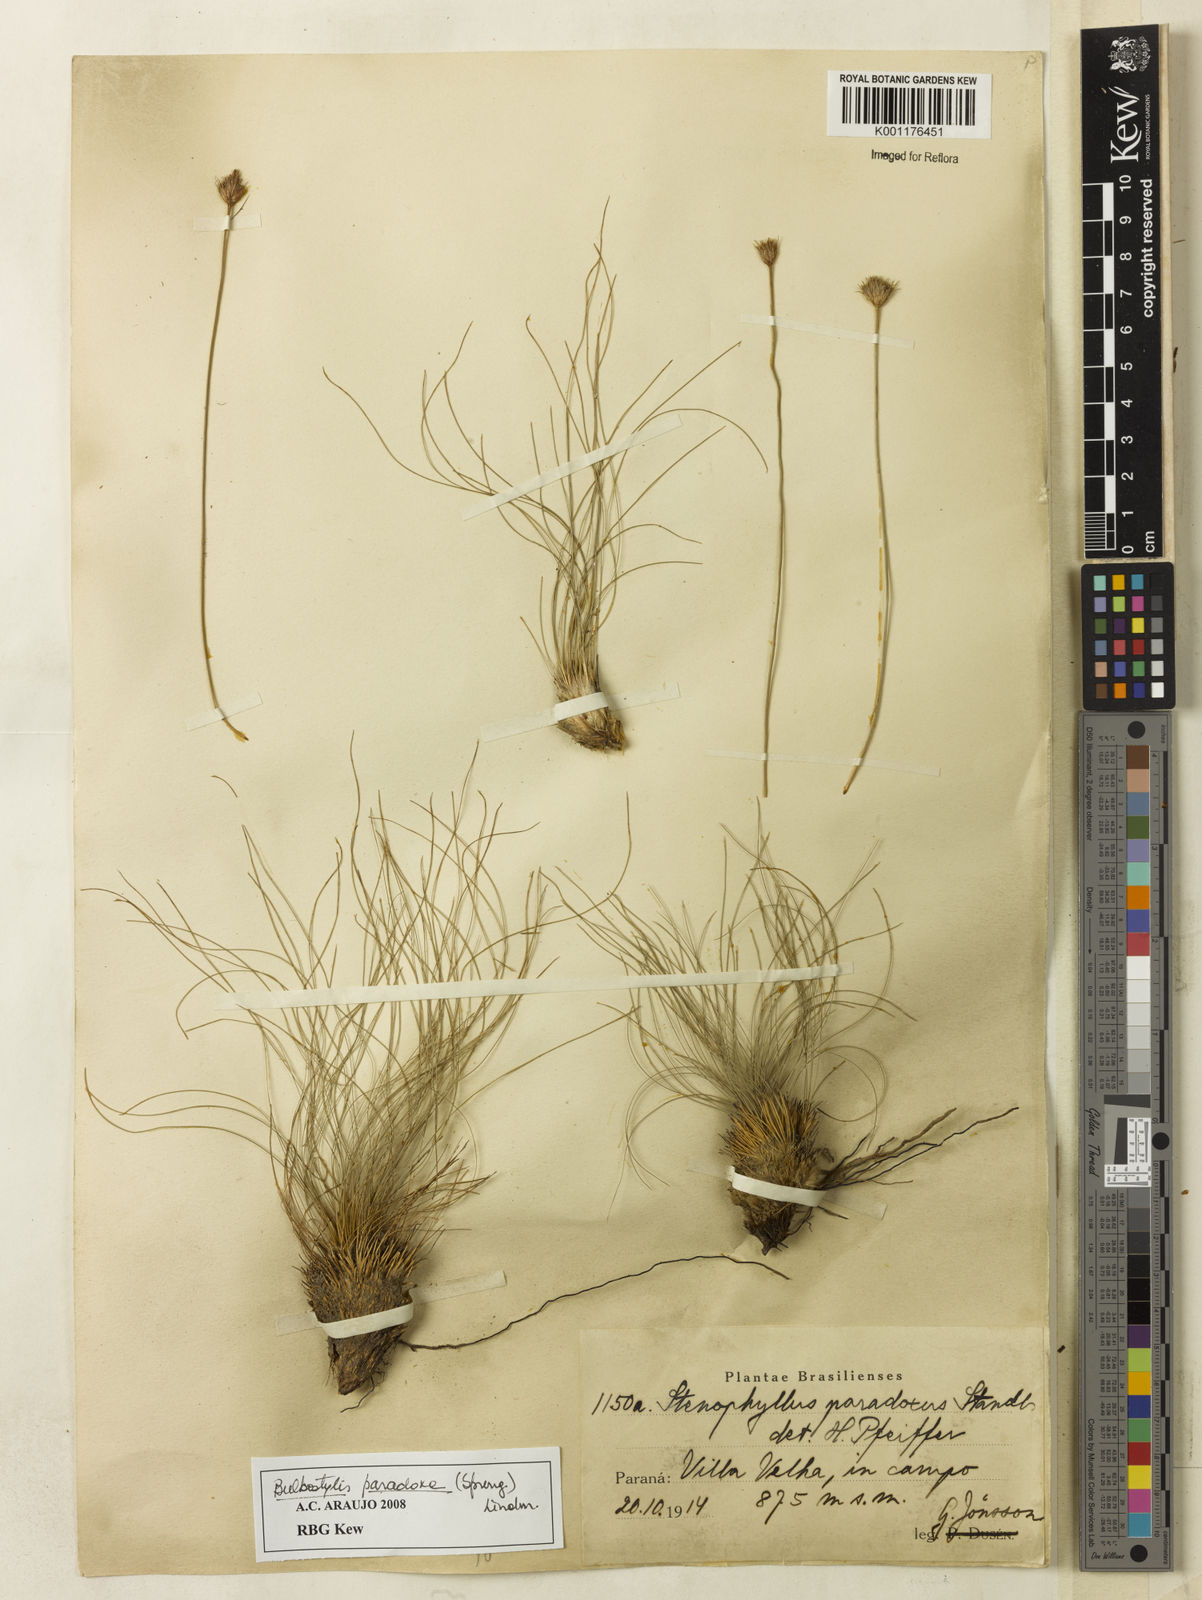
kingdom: Plantae
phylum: Tracheophyta
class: Liliopsida
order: Poales
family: Cyperaceae
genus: Bulbostylis
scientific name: Bulbostylis paradoxa
